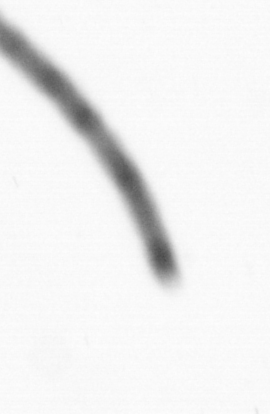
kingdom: Chromista
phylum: Ochrophyta
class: Bacillariophyceae
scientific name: Bacillariophyceae
